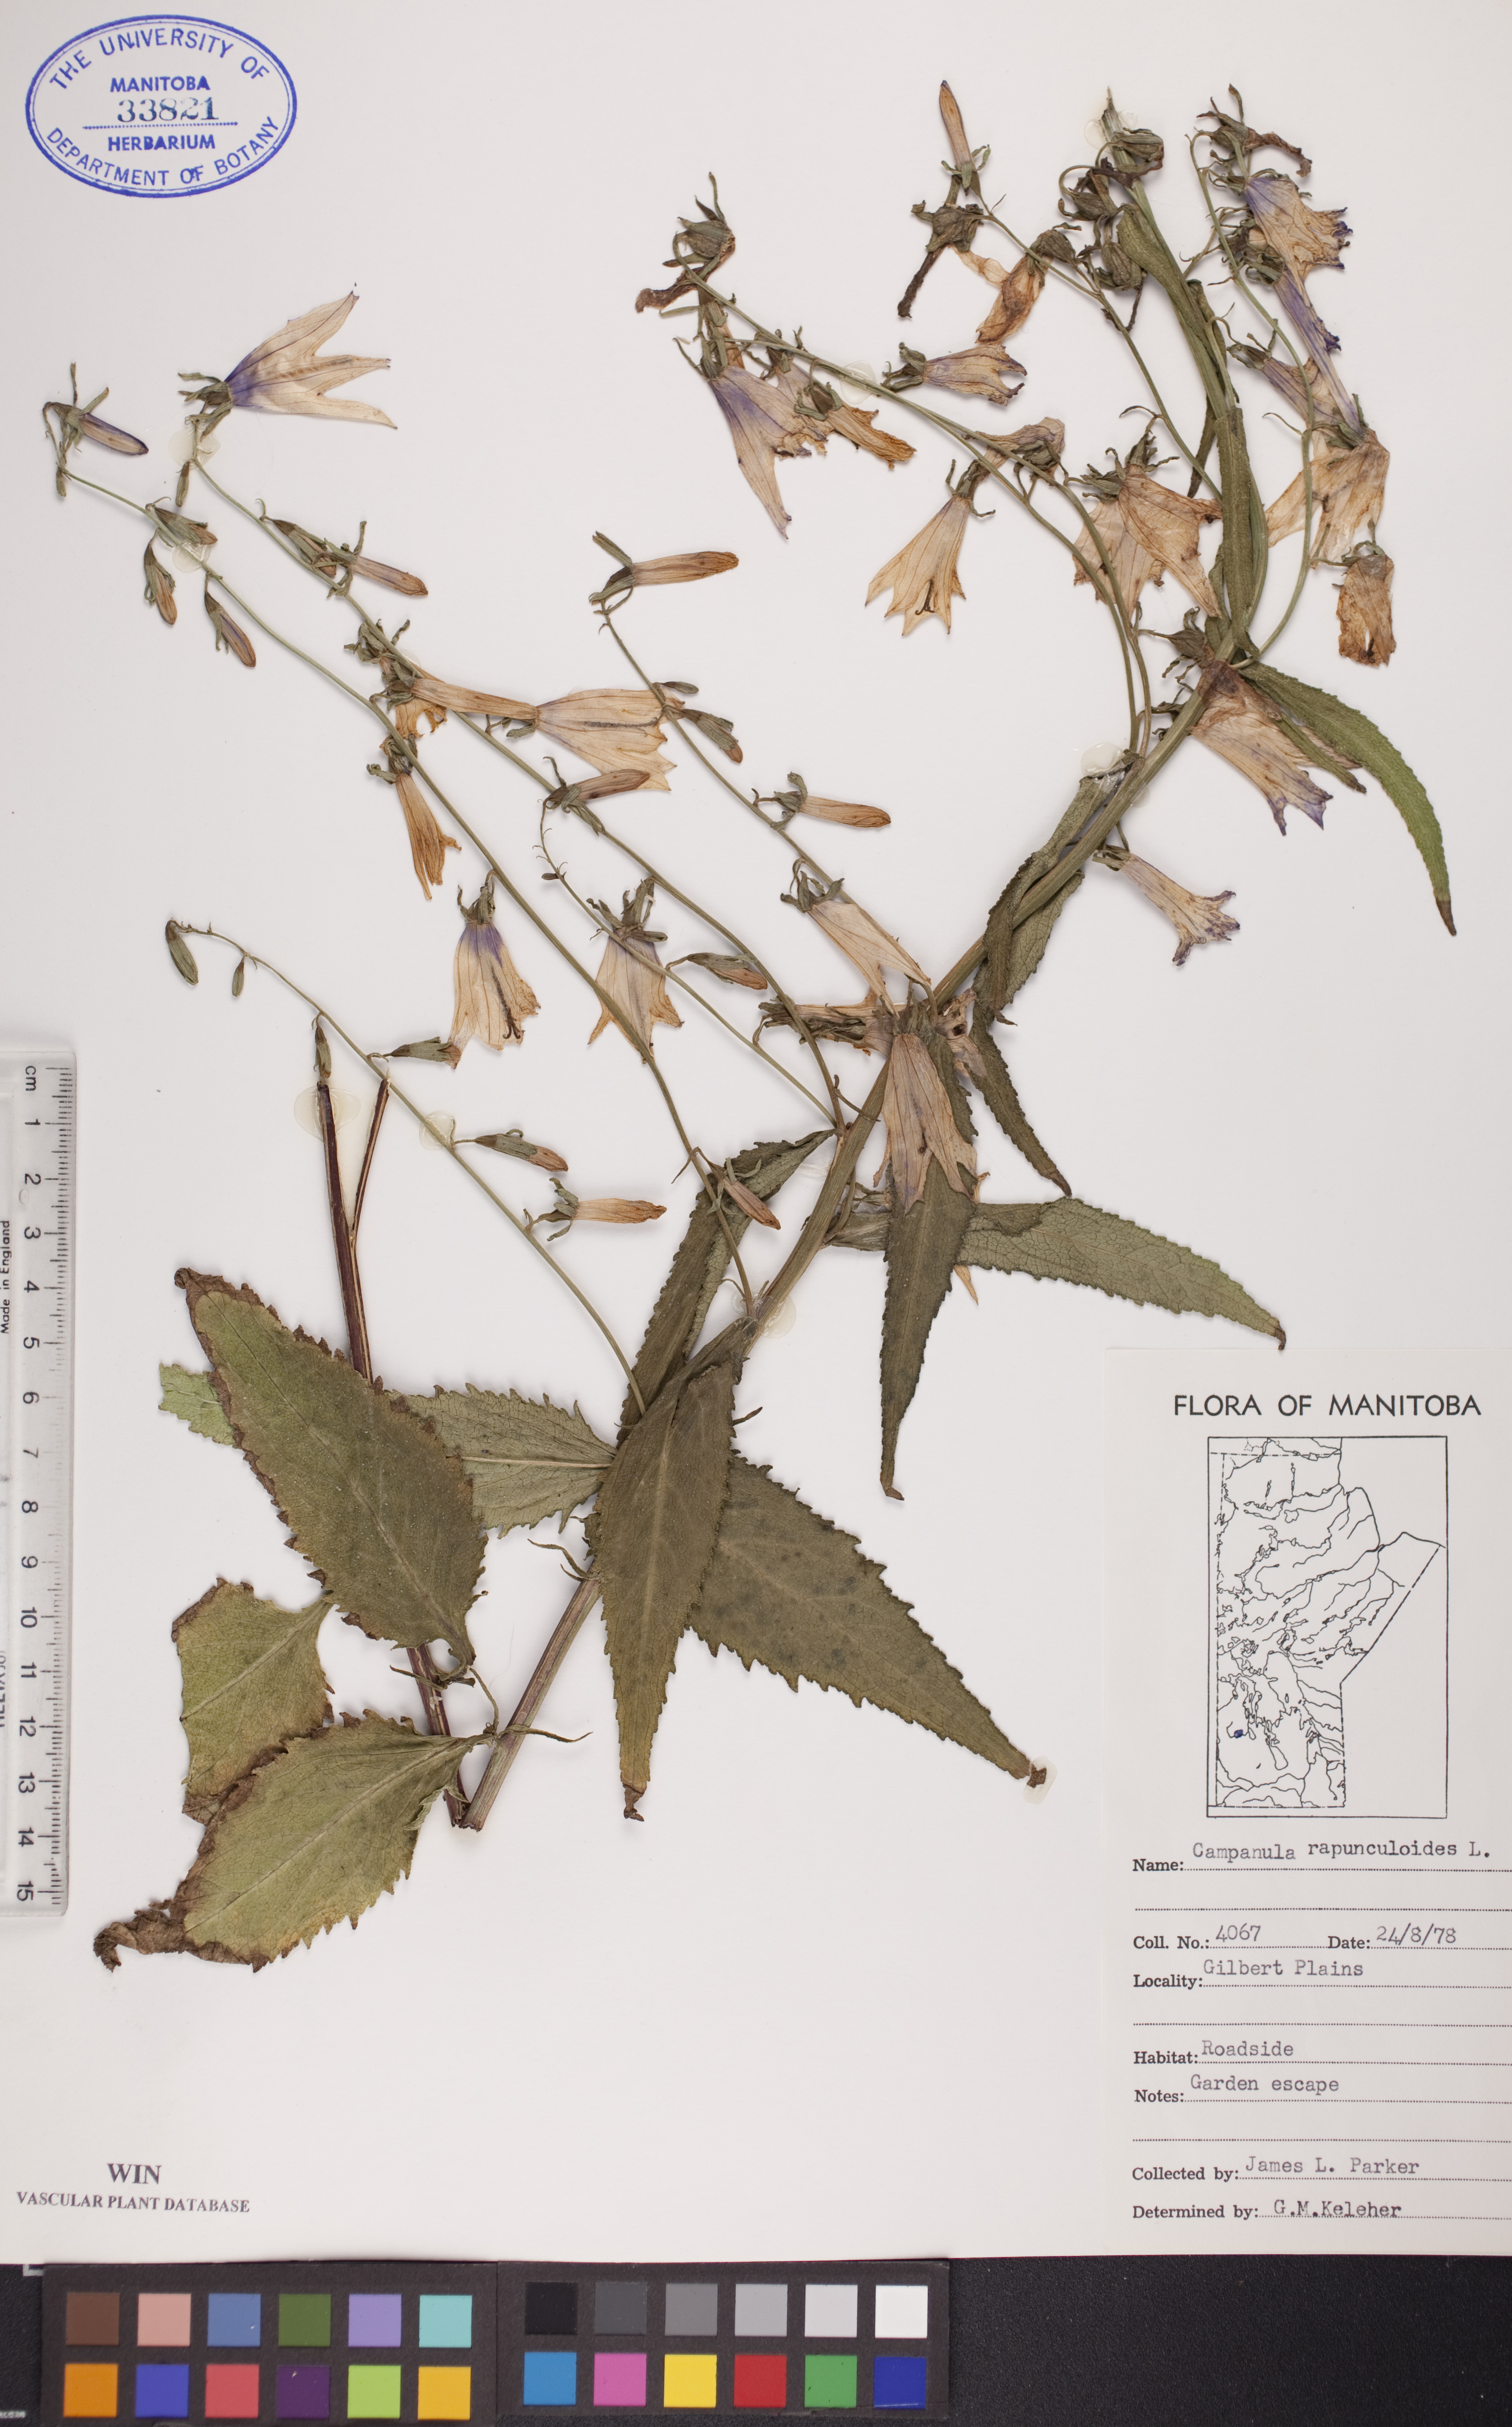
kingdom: Plantae
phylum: Tracheophyta
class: Magnoliopsida
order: Asterales
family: Campanulaceae
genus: Campanula
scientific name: Campanula rapunculoides
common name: Creeping bellflower
